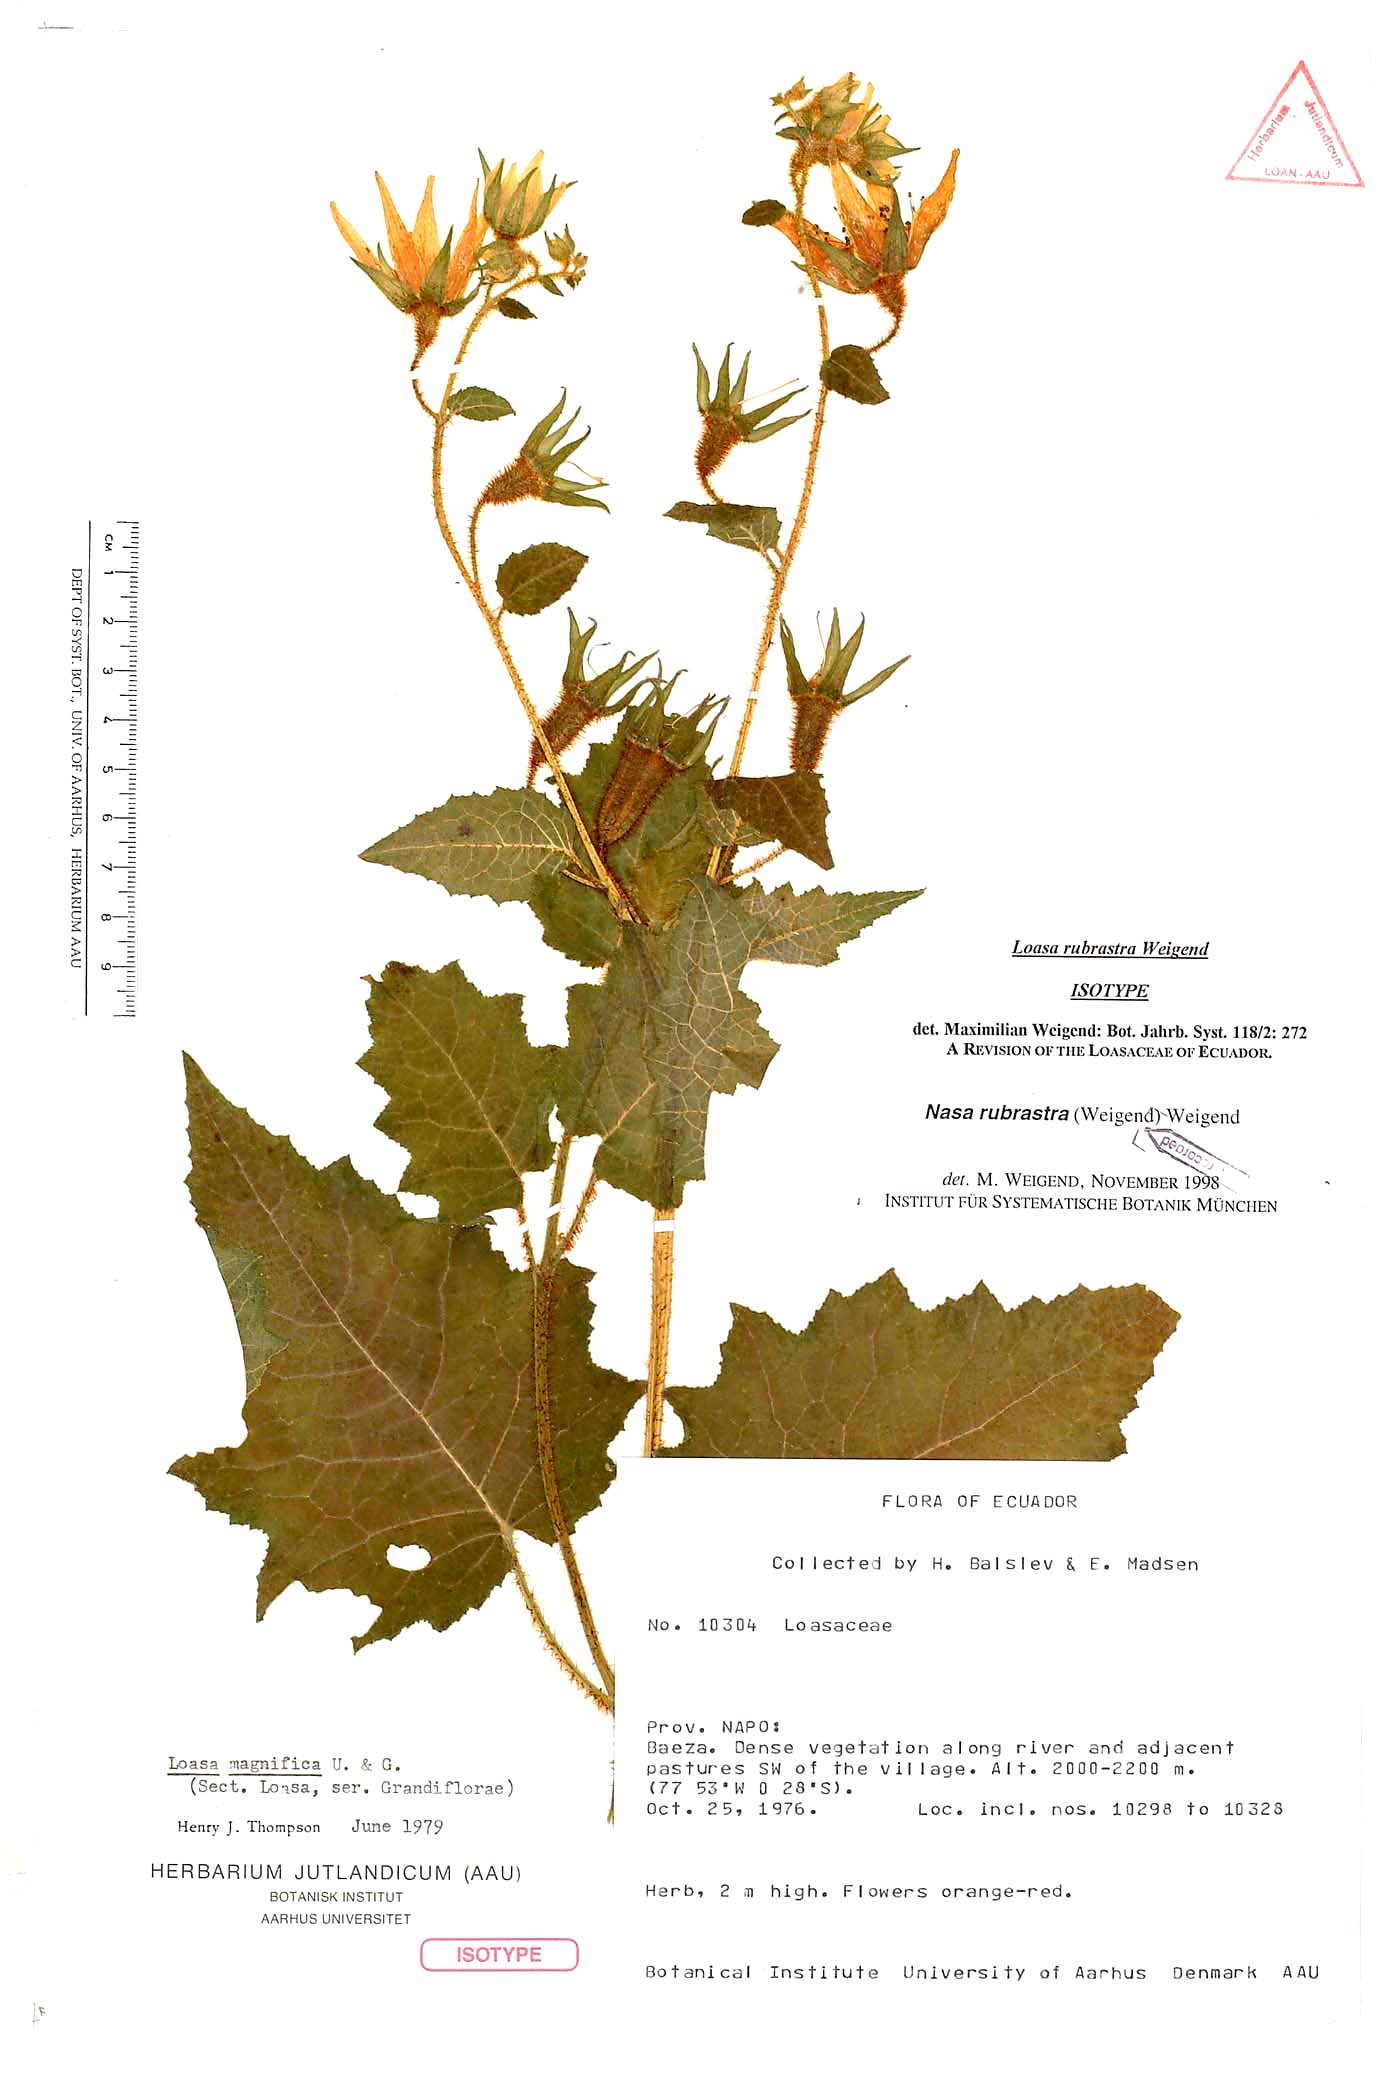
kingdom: Plantae
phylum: Tracheophyta
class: Magnoliopsida
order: Cornales
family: Loasaceae
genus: Nasa
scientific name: Nasa rubrastra
